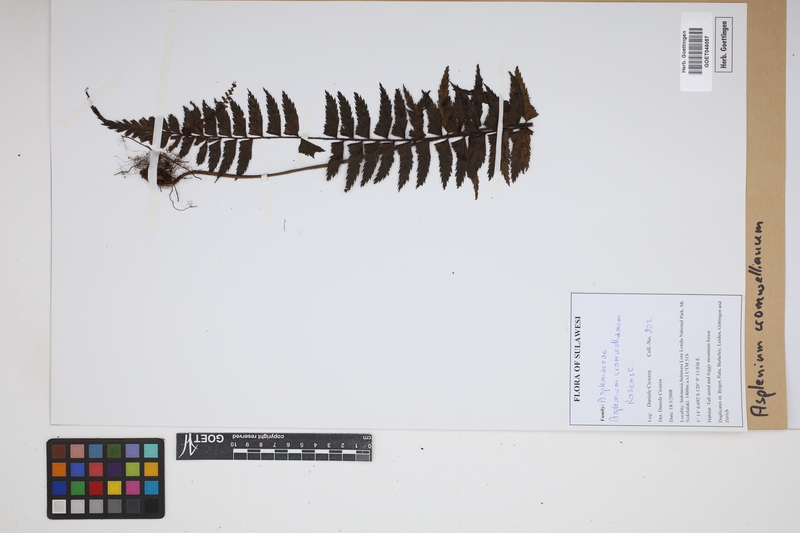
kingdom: Plantae
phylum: Tracheophyta
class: Polypodiopsida
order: Polypodiales
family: Aspleniaceae
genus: Asplenium
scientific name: Asplenium lobulatum
